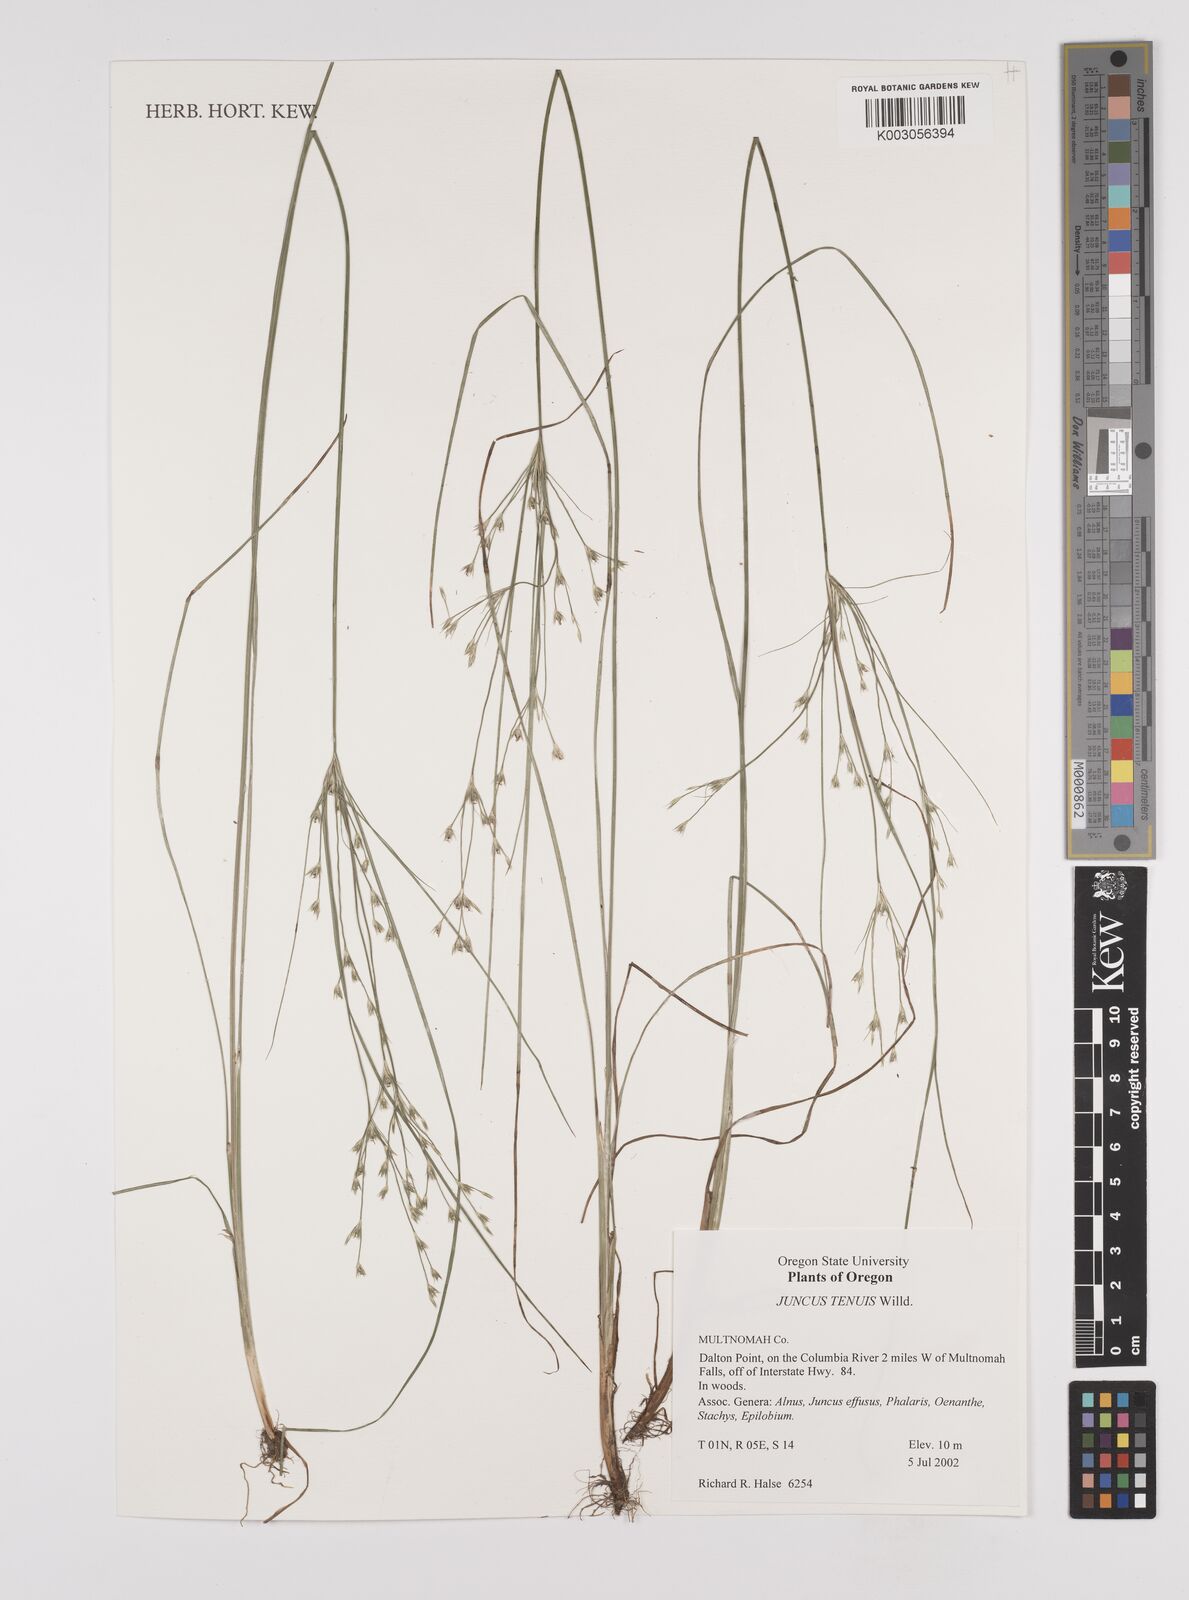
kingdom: Plantae
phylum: Tracheophyta
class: Liliopsida
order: Poales
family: Juncaceae
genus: Juncus
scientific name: Juncus tenuis
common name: Slender rush
